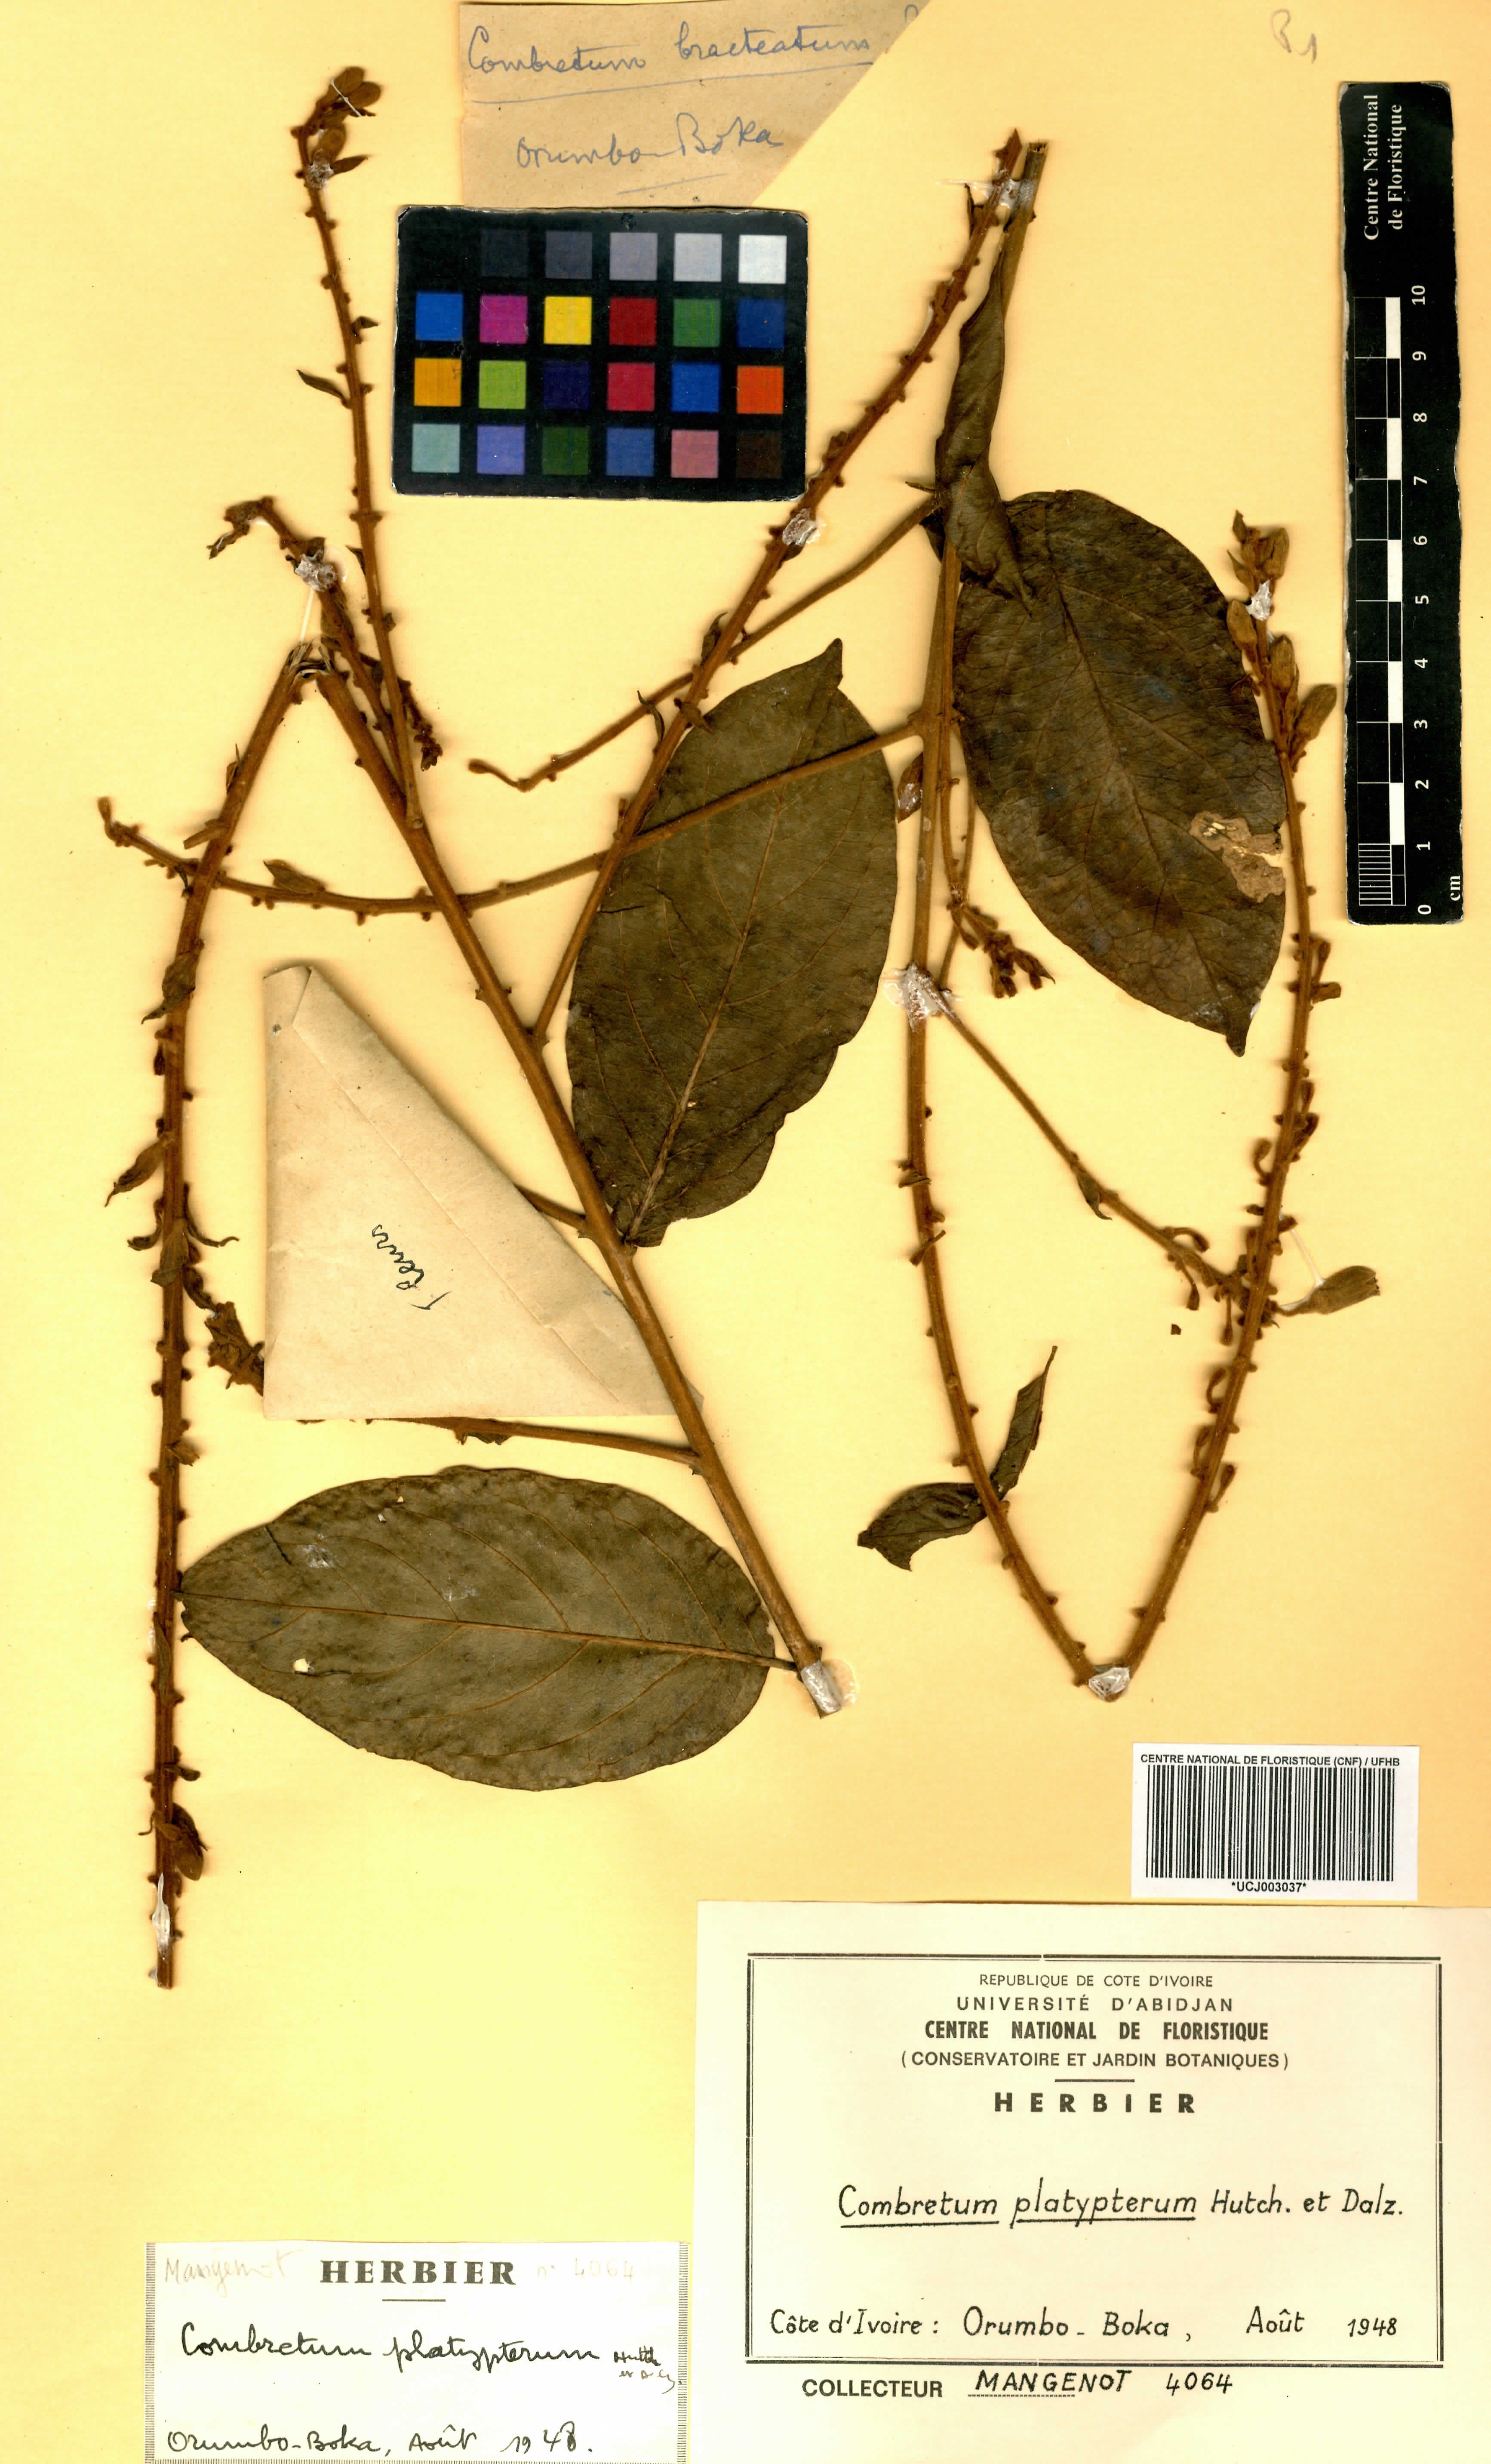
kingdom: Plantae
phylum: Tracheophyta
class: Magnoliopsida
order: Myrtales
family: Combretaceae
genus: Combretum
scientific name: Combretum platypterum
